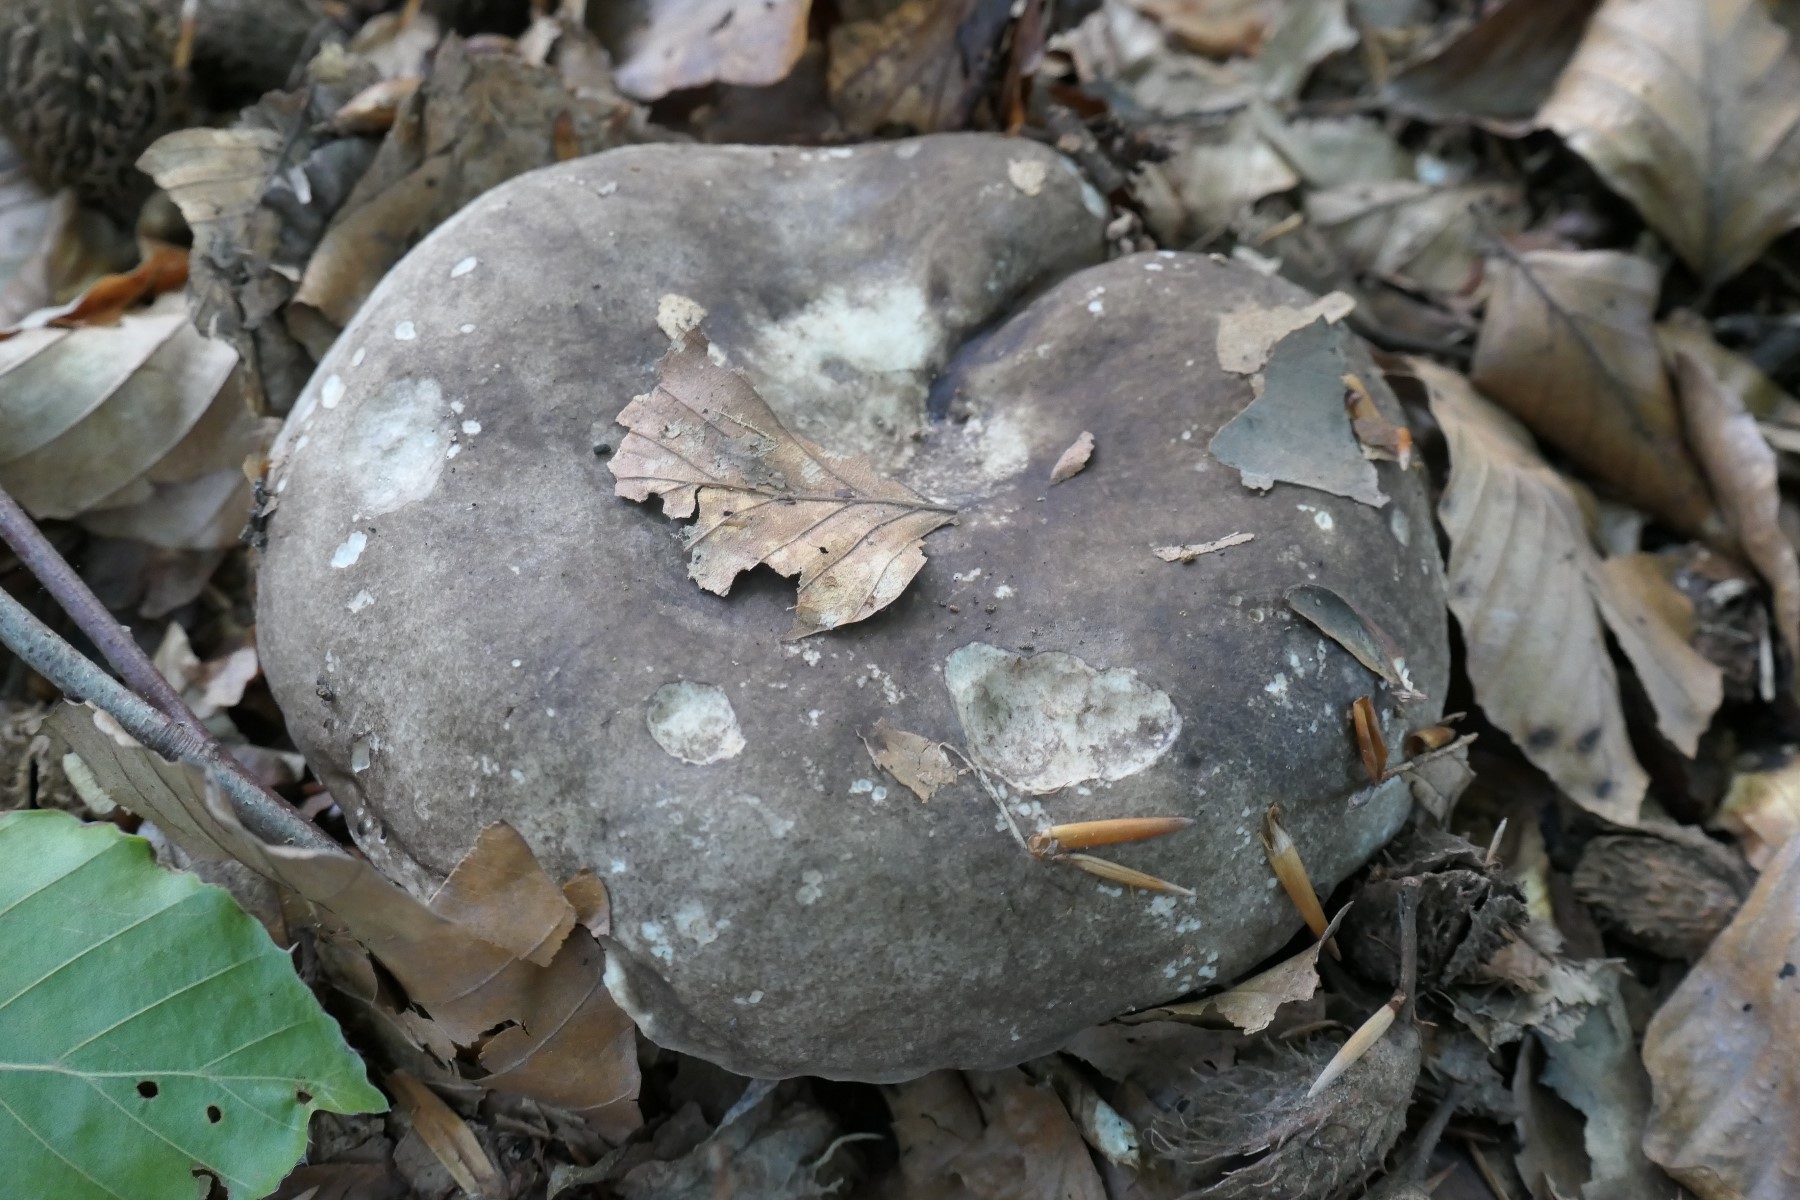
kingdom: Fungi
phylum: Basidiomycota
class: Agaricomycetes
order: Russulales
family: Russulaceae
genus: Russula
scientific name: Russula adusta
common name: sværtende skørhat
